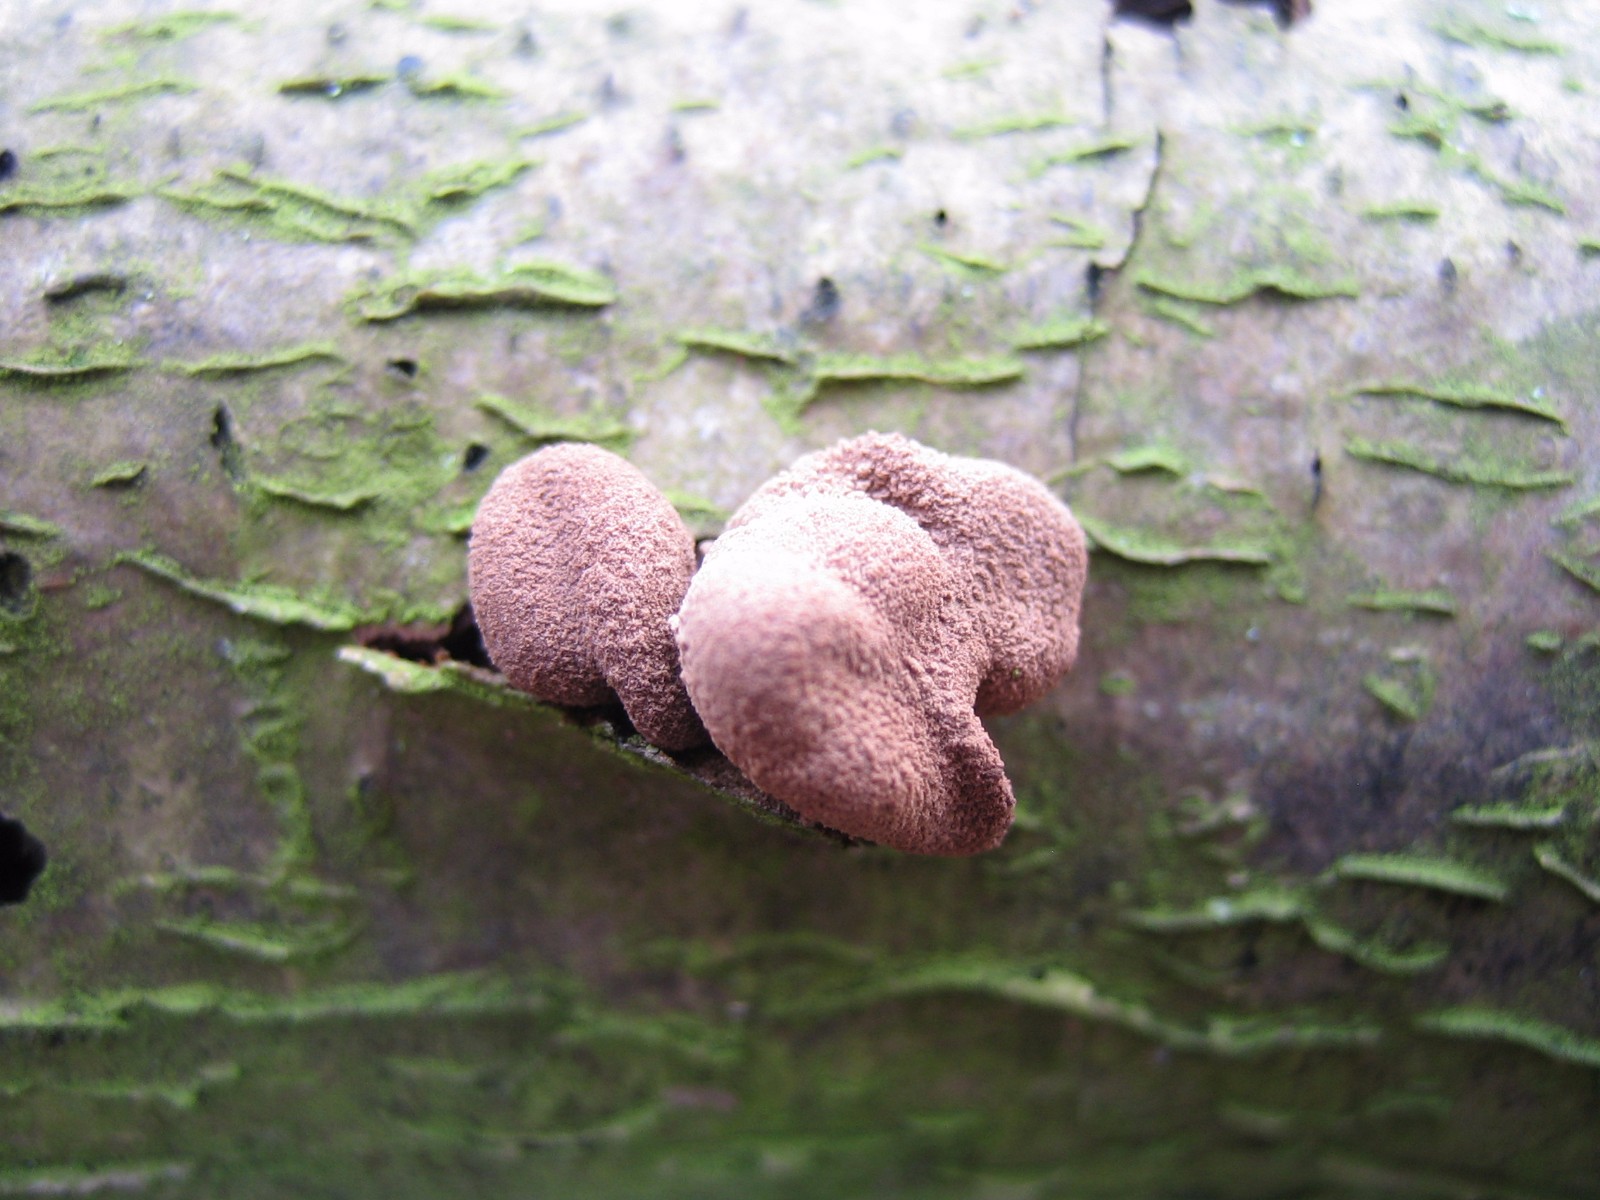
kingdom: Fungi
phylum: Ascomycota
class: Leotiomycetes
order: Helotiales
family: Cenangiaceae
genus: Encoelia
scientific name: Encoelia furfuracea
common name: hassel-læderskive
